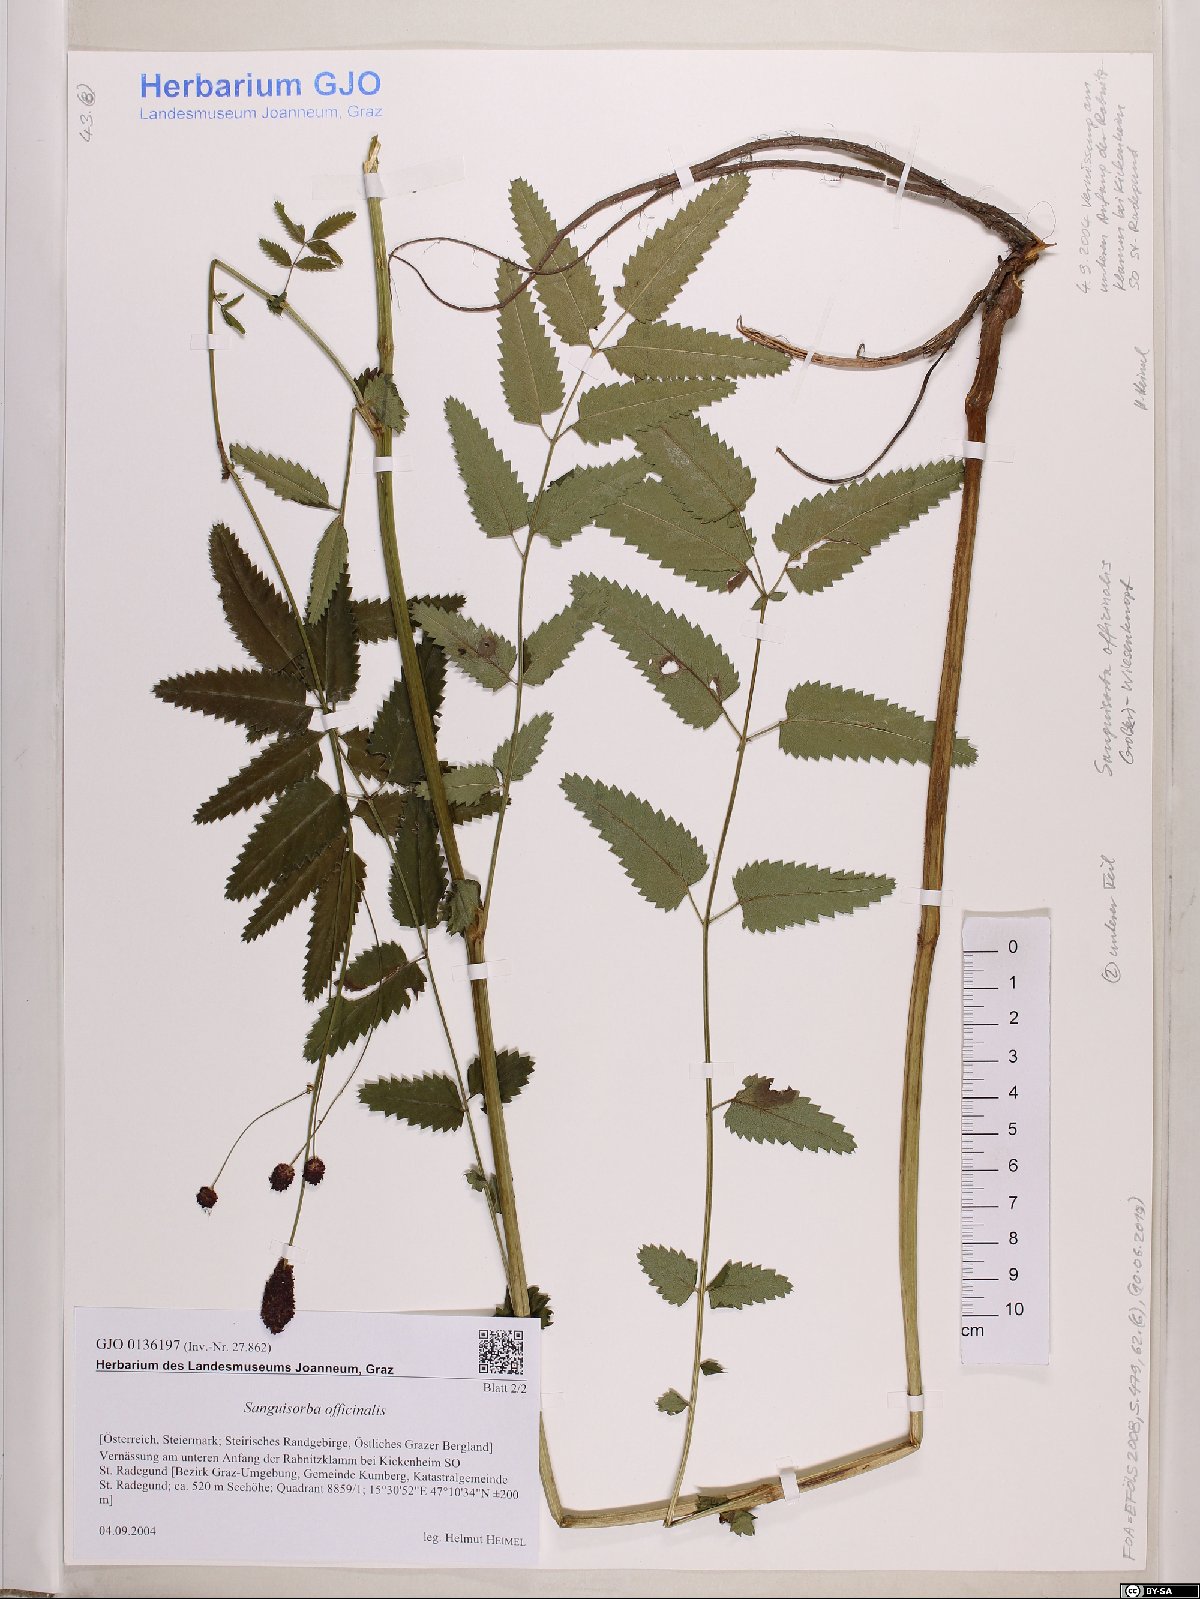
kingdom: Plantae
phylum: Tracheophyta
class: Magnoliopsida
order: Rosales
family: Rosaceae
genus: Sanguisorba
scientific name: Sanguisorba officinalis
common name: Great burnet
